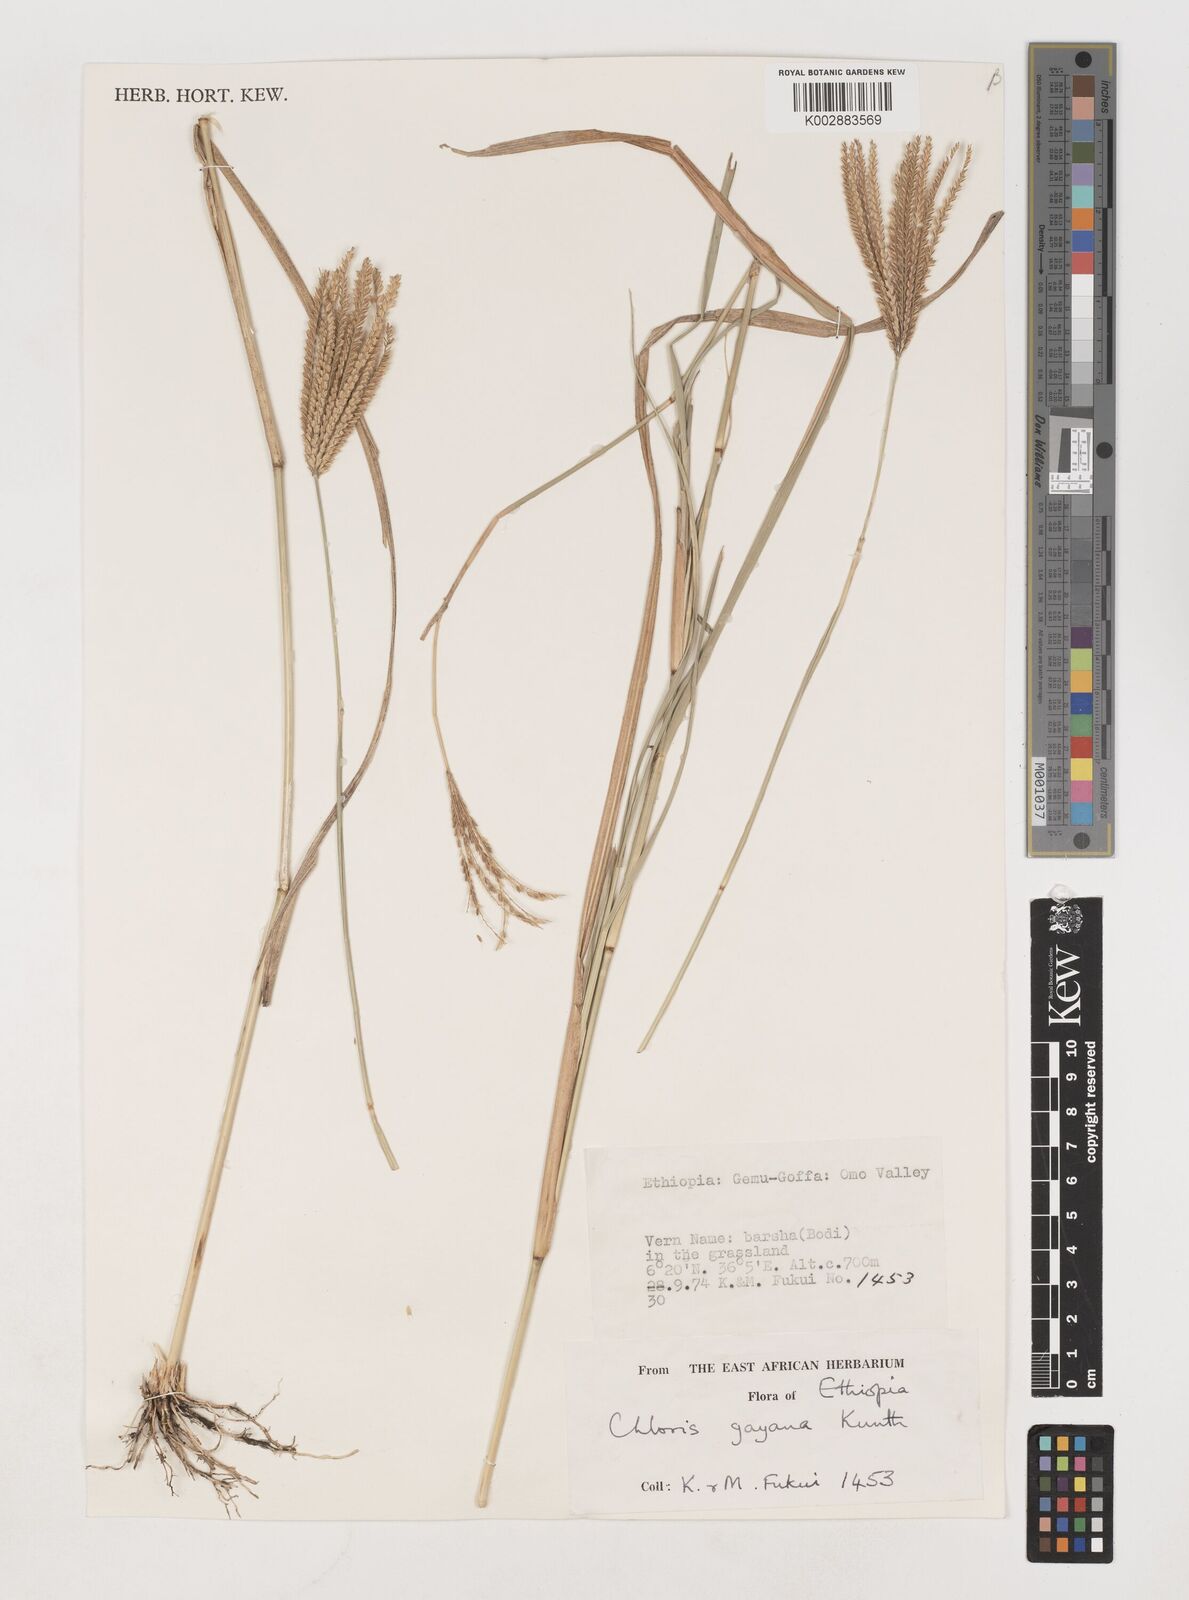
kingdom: Plantae
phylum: Tracheophyta
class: Liliopsida
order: Poales
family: Poaceae
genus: Chloris
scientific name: Chloris gayana
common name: Rhodes grass
